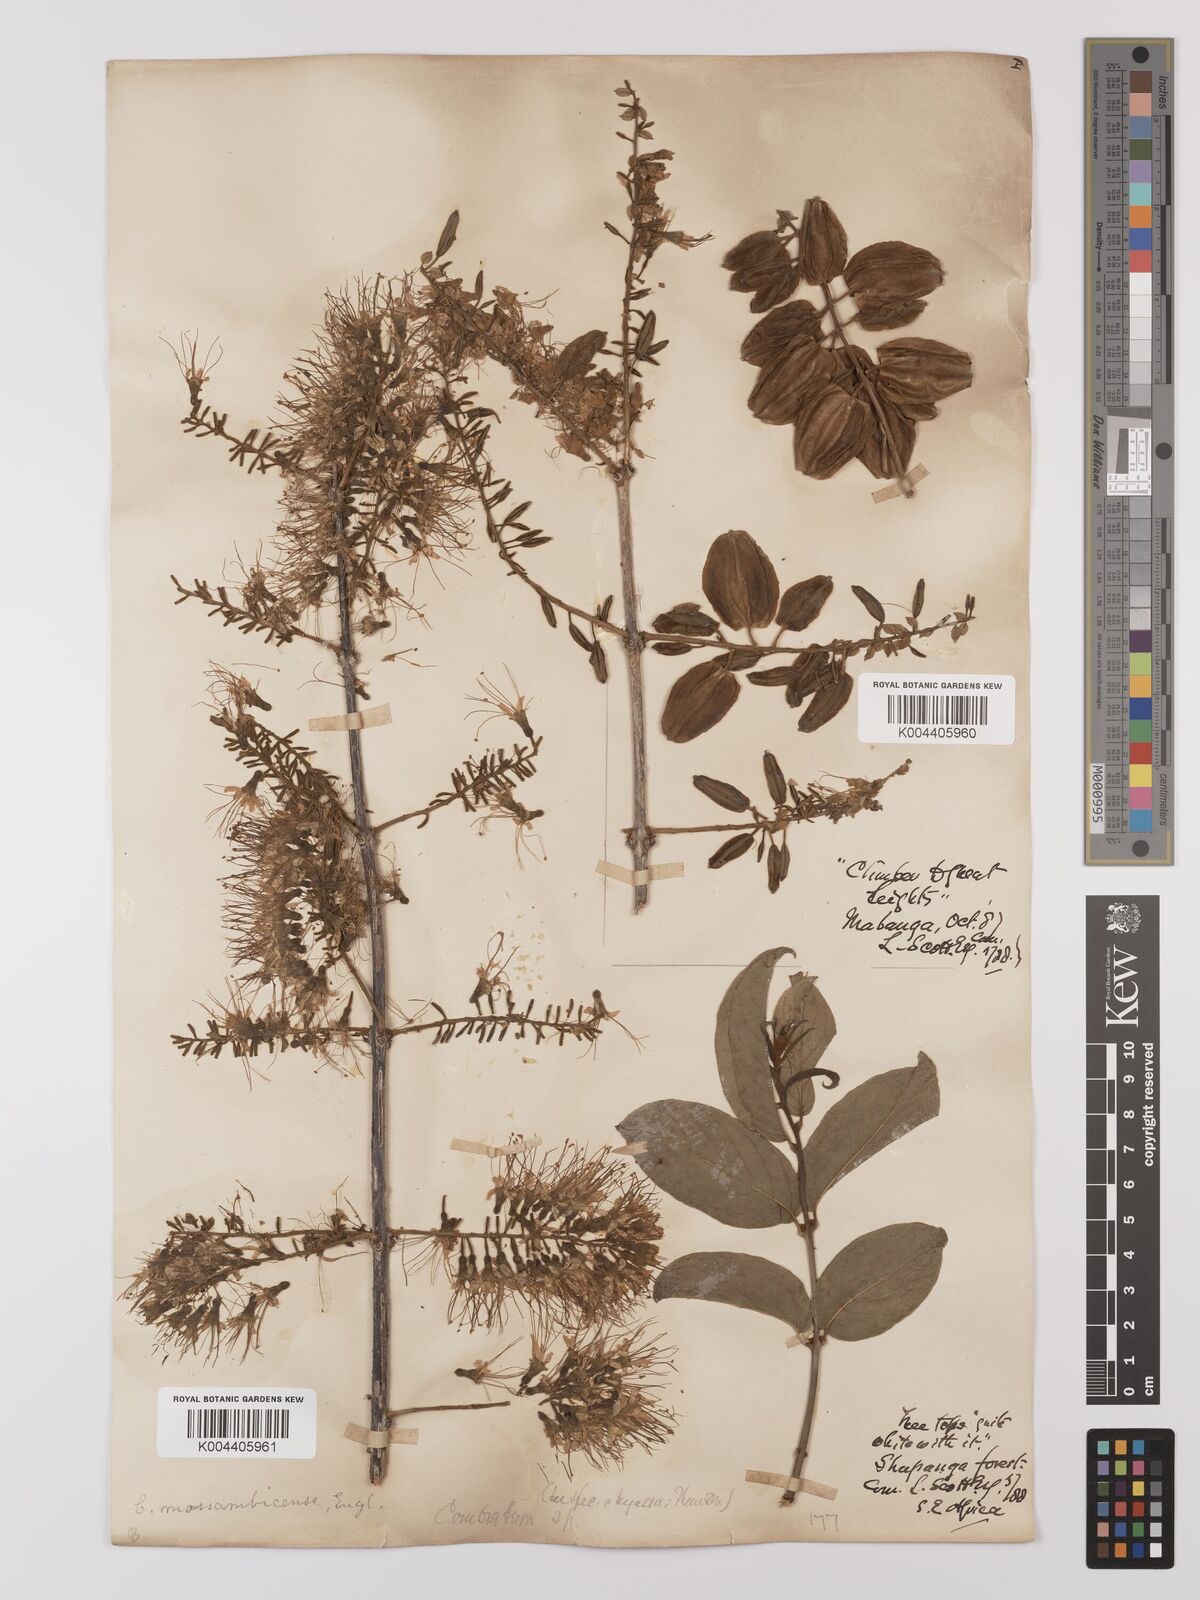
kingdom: Plantae
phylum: Tracheophyta
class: Magnoliopsida
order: Myrtales
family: Combretaceae
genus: Combretum
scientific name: Combretum mossambicense
